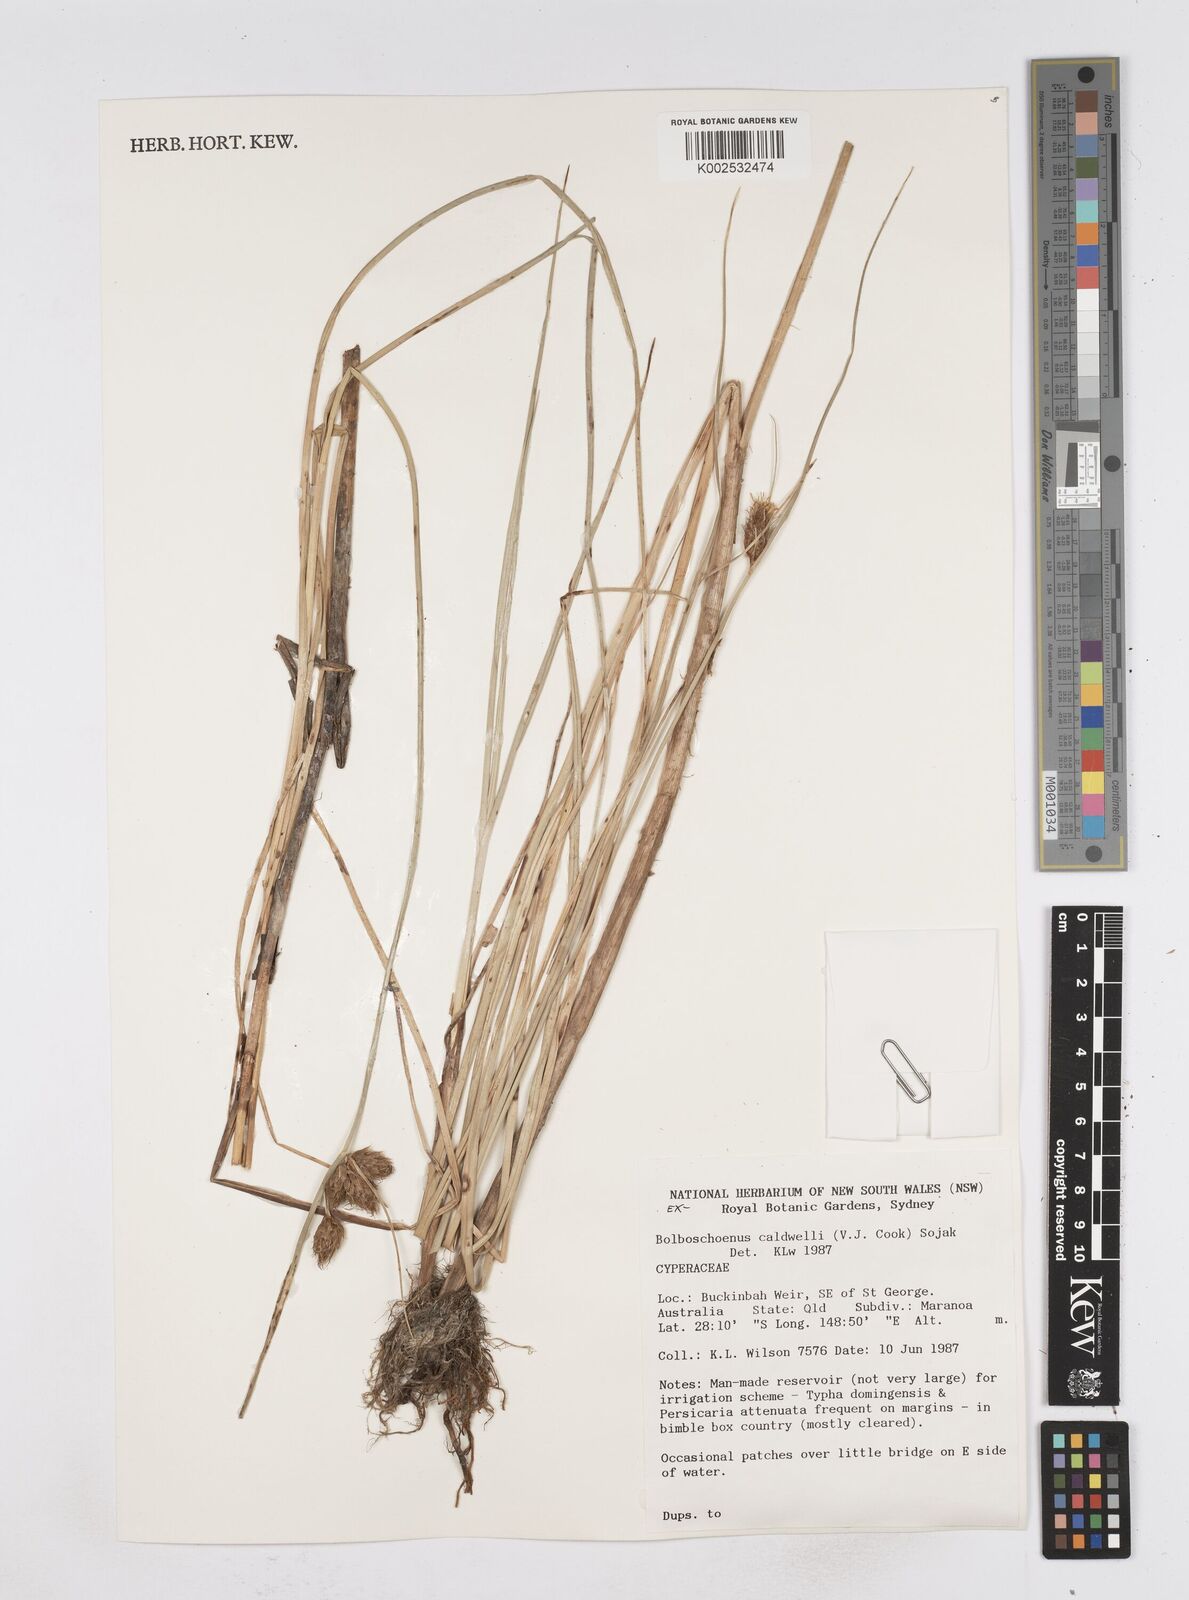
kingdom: Plantae
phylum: Tracheophyta
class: Liliopsida
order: Poales
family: Cyperaceae
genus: Bolboschoenus
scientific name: Bolboschoenus caldwellii
